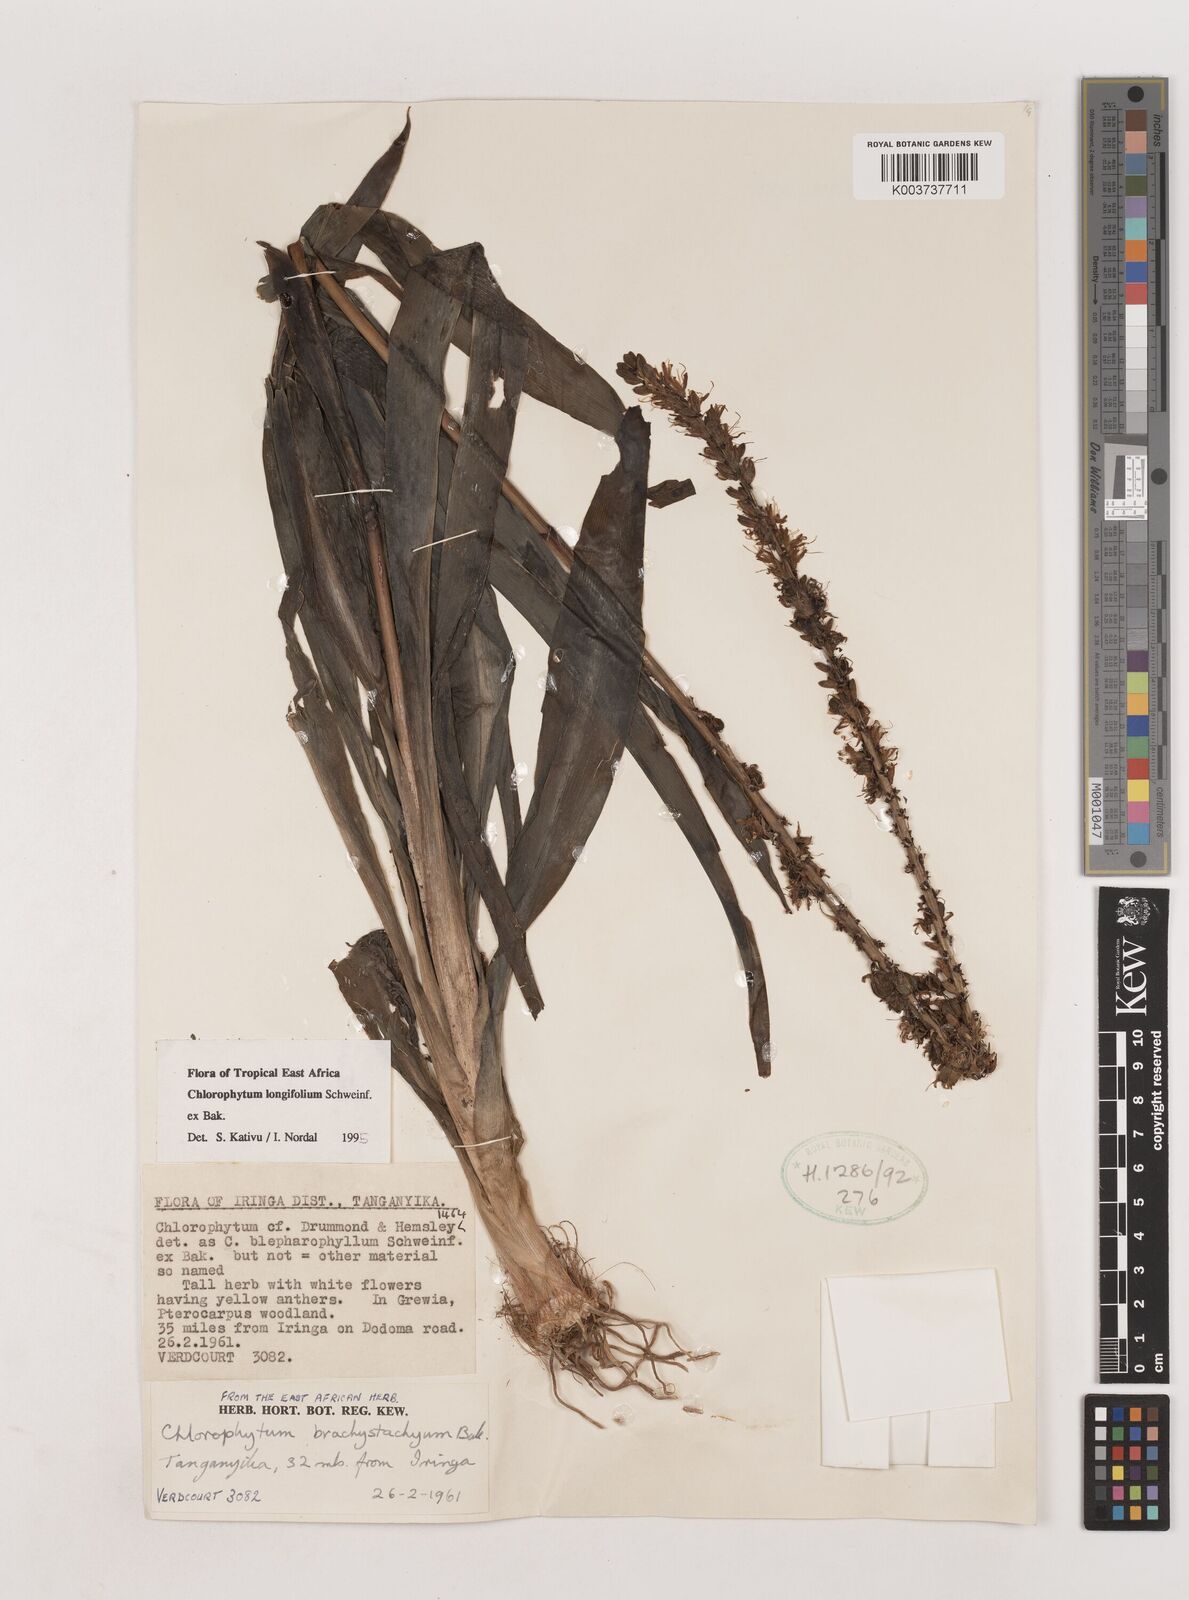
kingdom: Plantae
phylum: Tracheophyta
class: Liliopsida
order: Asparagales
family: Asparagaceae
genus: Chlorophytum
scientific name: Chlorophytum longifolium
